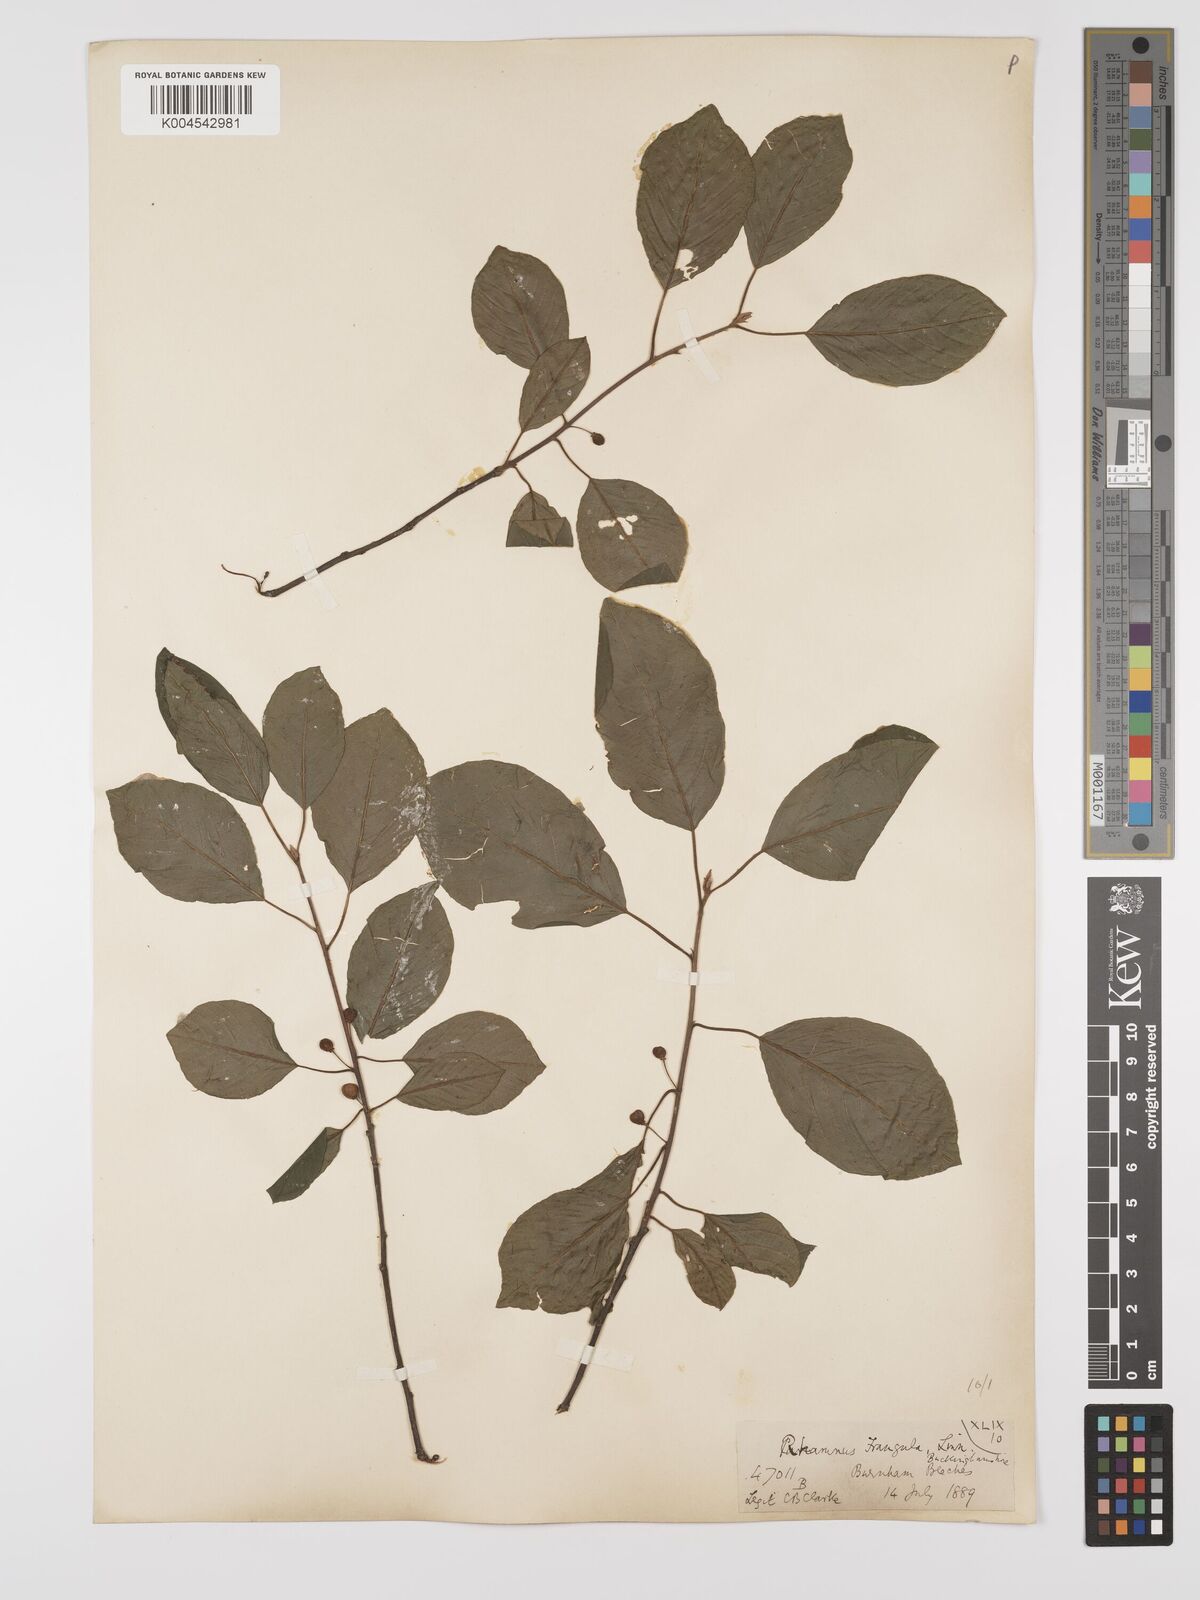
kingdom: Plantae
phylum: Tracheophyta
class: Magnoliopsida
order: Rosales
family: Rhamnaceae
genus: Frangula
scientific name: Frangula alnus
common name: Alder buckthorn
